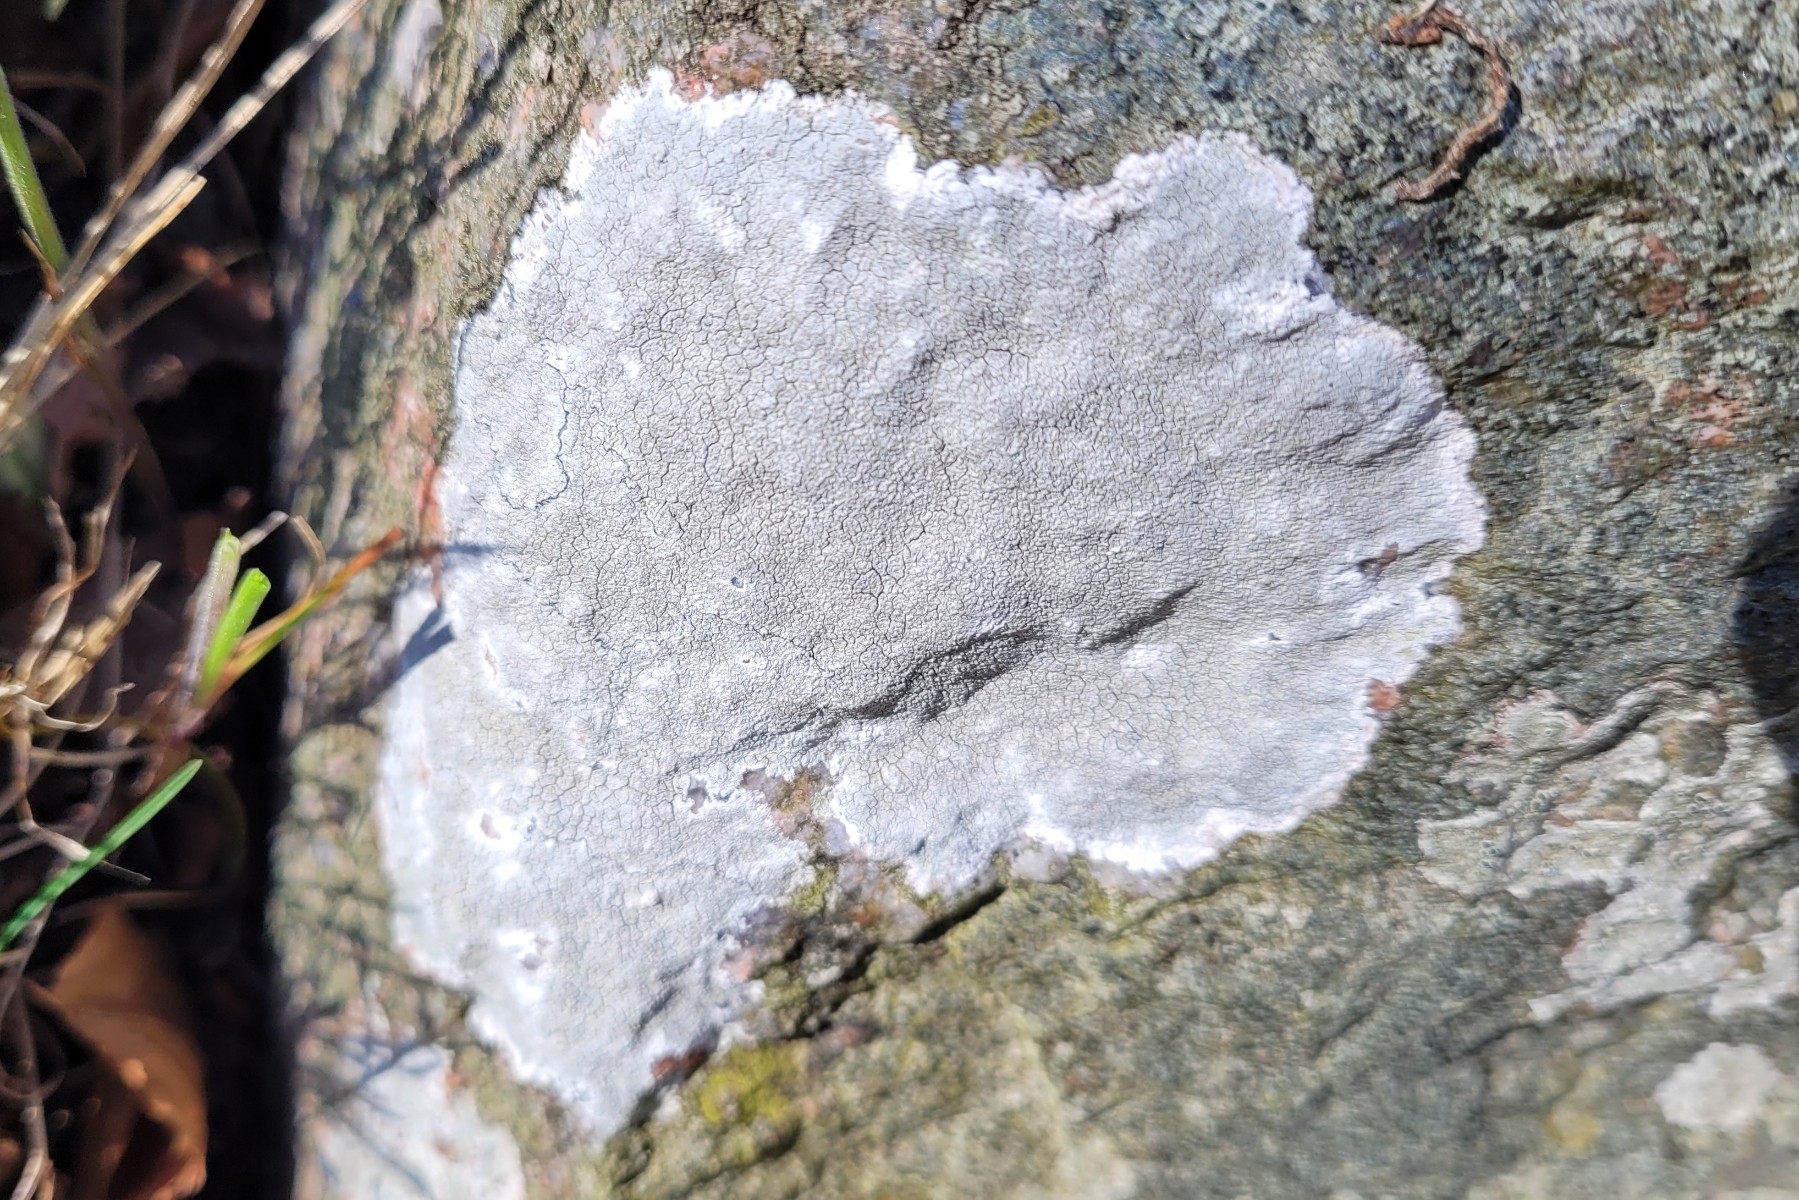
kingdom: Fungi
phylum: Ascomycota
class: Lecanoromycetes
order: Lecanorales
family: Lecanoraceae
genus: Glaucomaria
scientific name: Glaucomaria rupicola
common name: stengærde-kantskivelav
